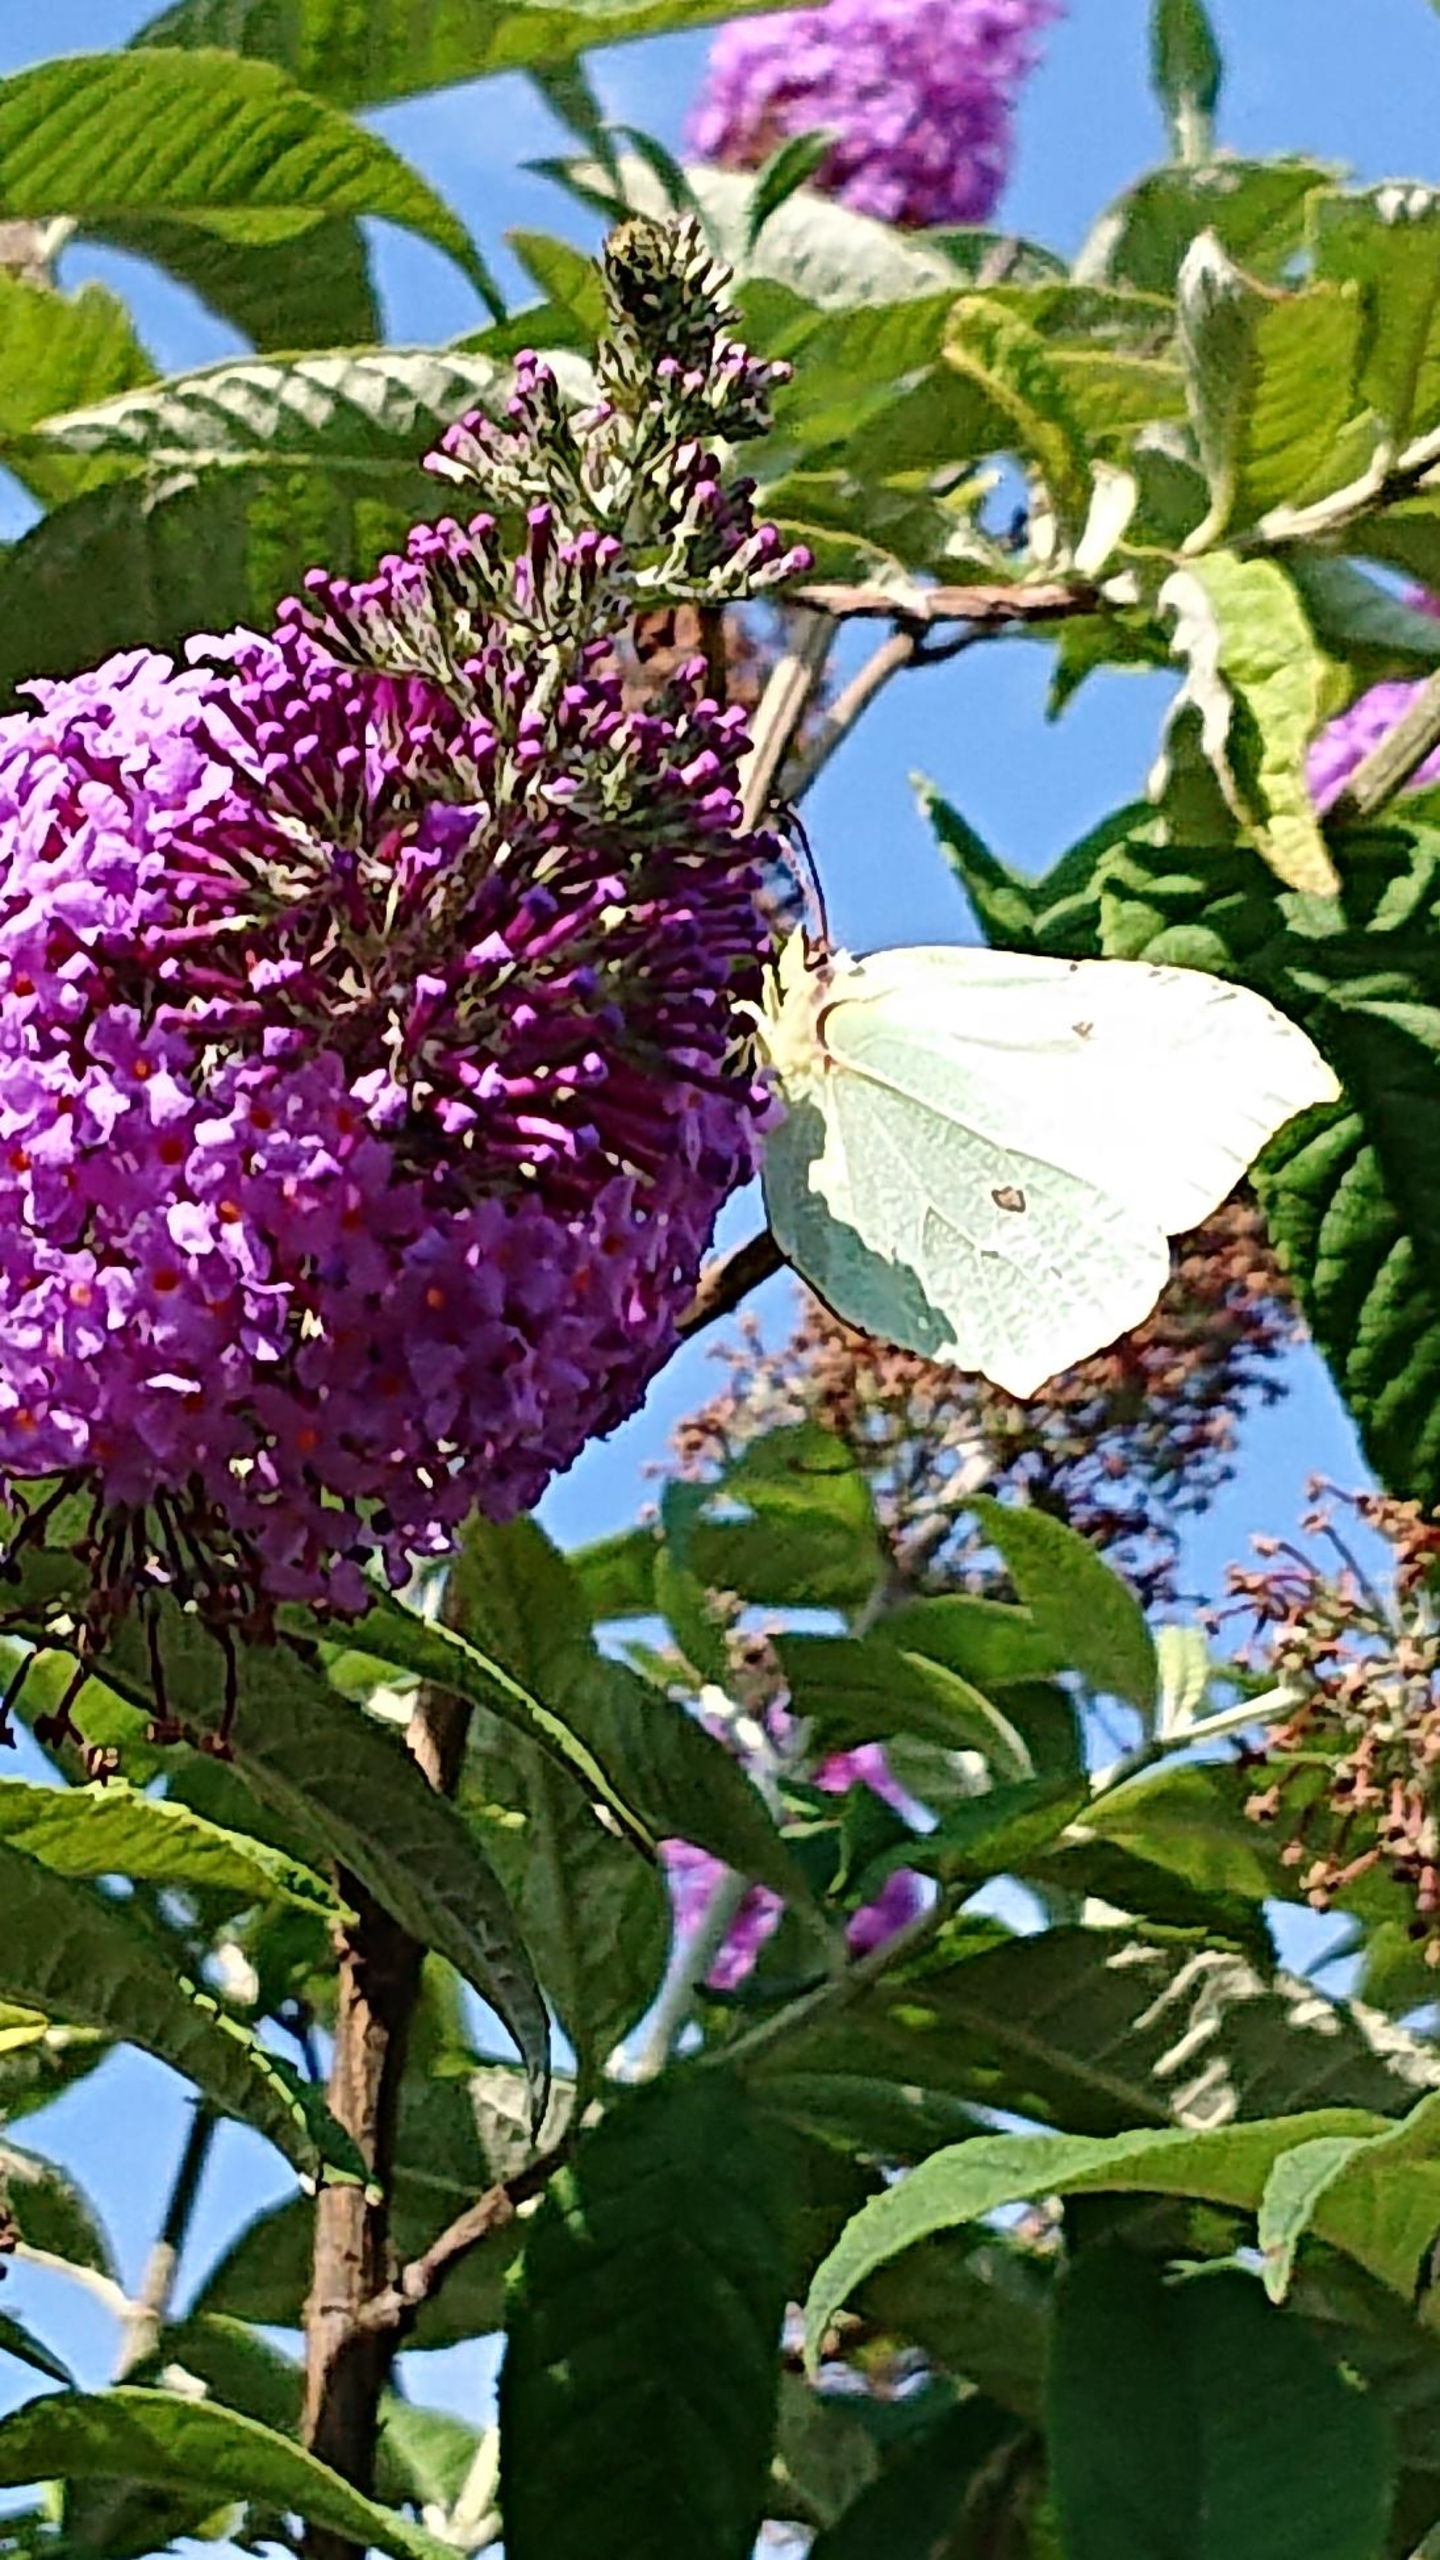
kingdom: Animalia
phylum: Arthropoda
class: Insecta
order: Lepidoptera
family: Pieridae
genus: Gonepteryx
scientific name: Gonepteryx rhamni
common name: Citronsommerfugl
